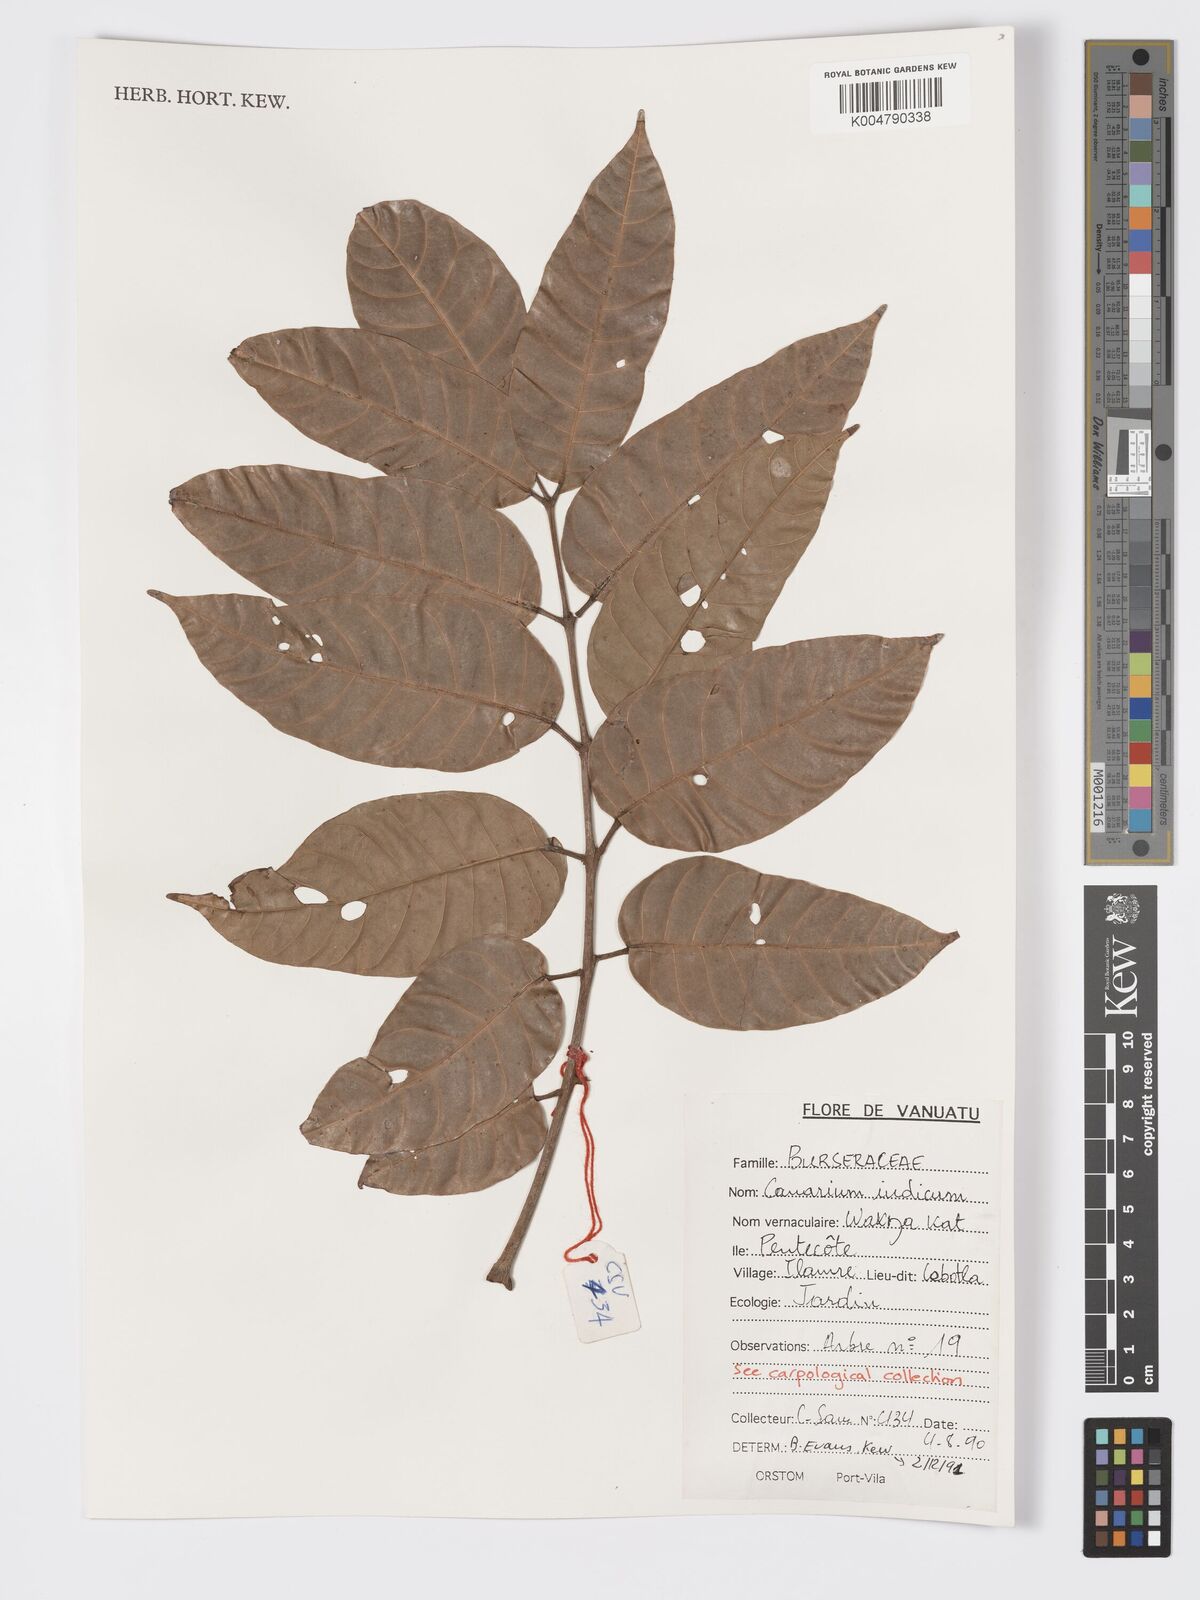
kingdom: Plantae
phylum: Tracheophyta
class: Magnoliopsida
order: Sapindales
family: Burseraceae
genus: Canarium
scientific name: Canarium indicum
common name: Canarium-nut
